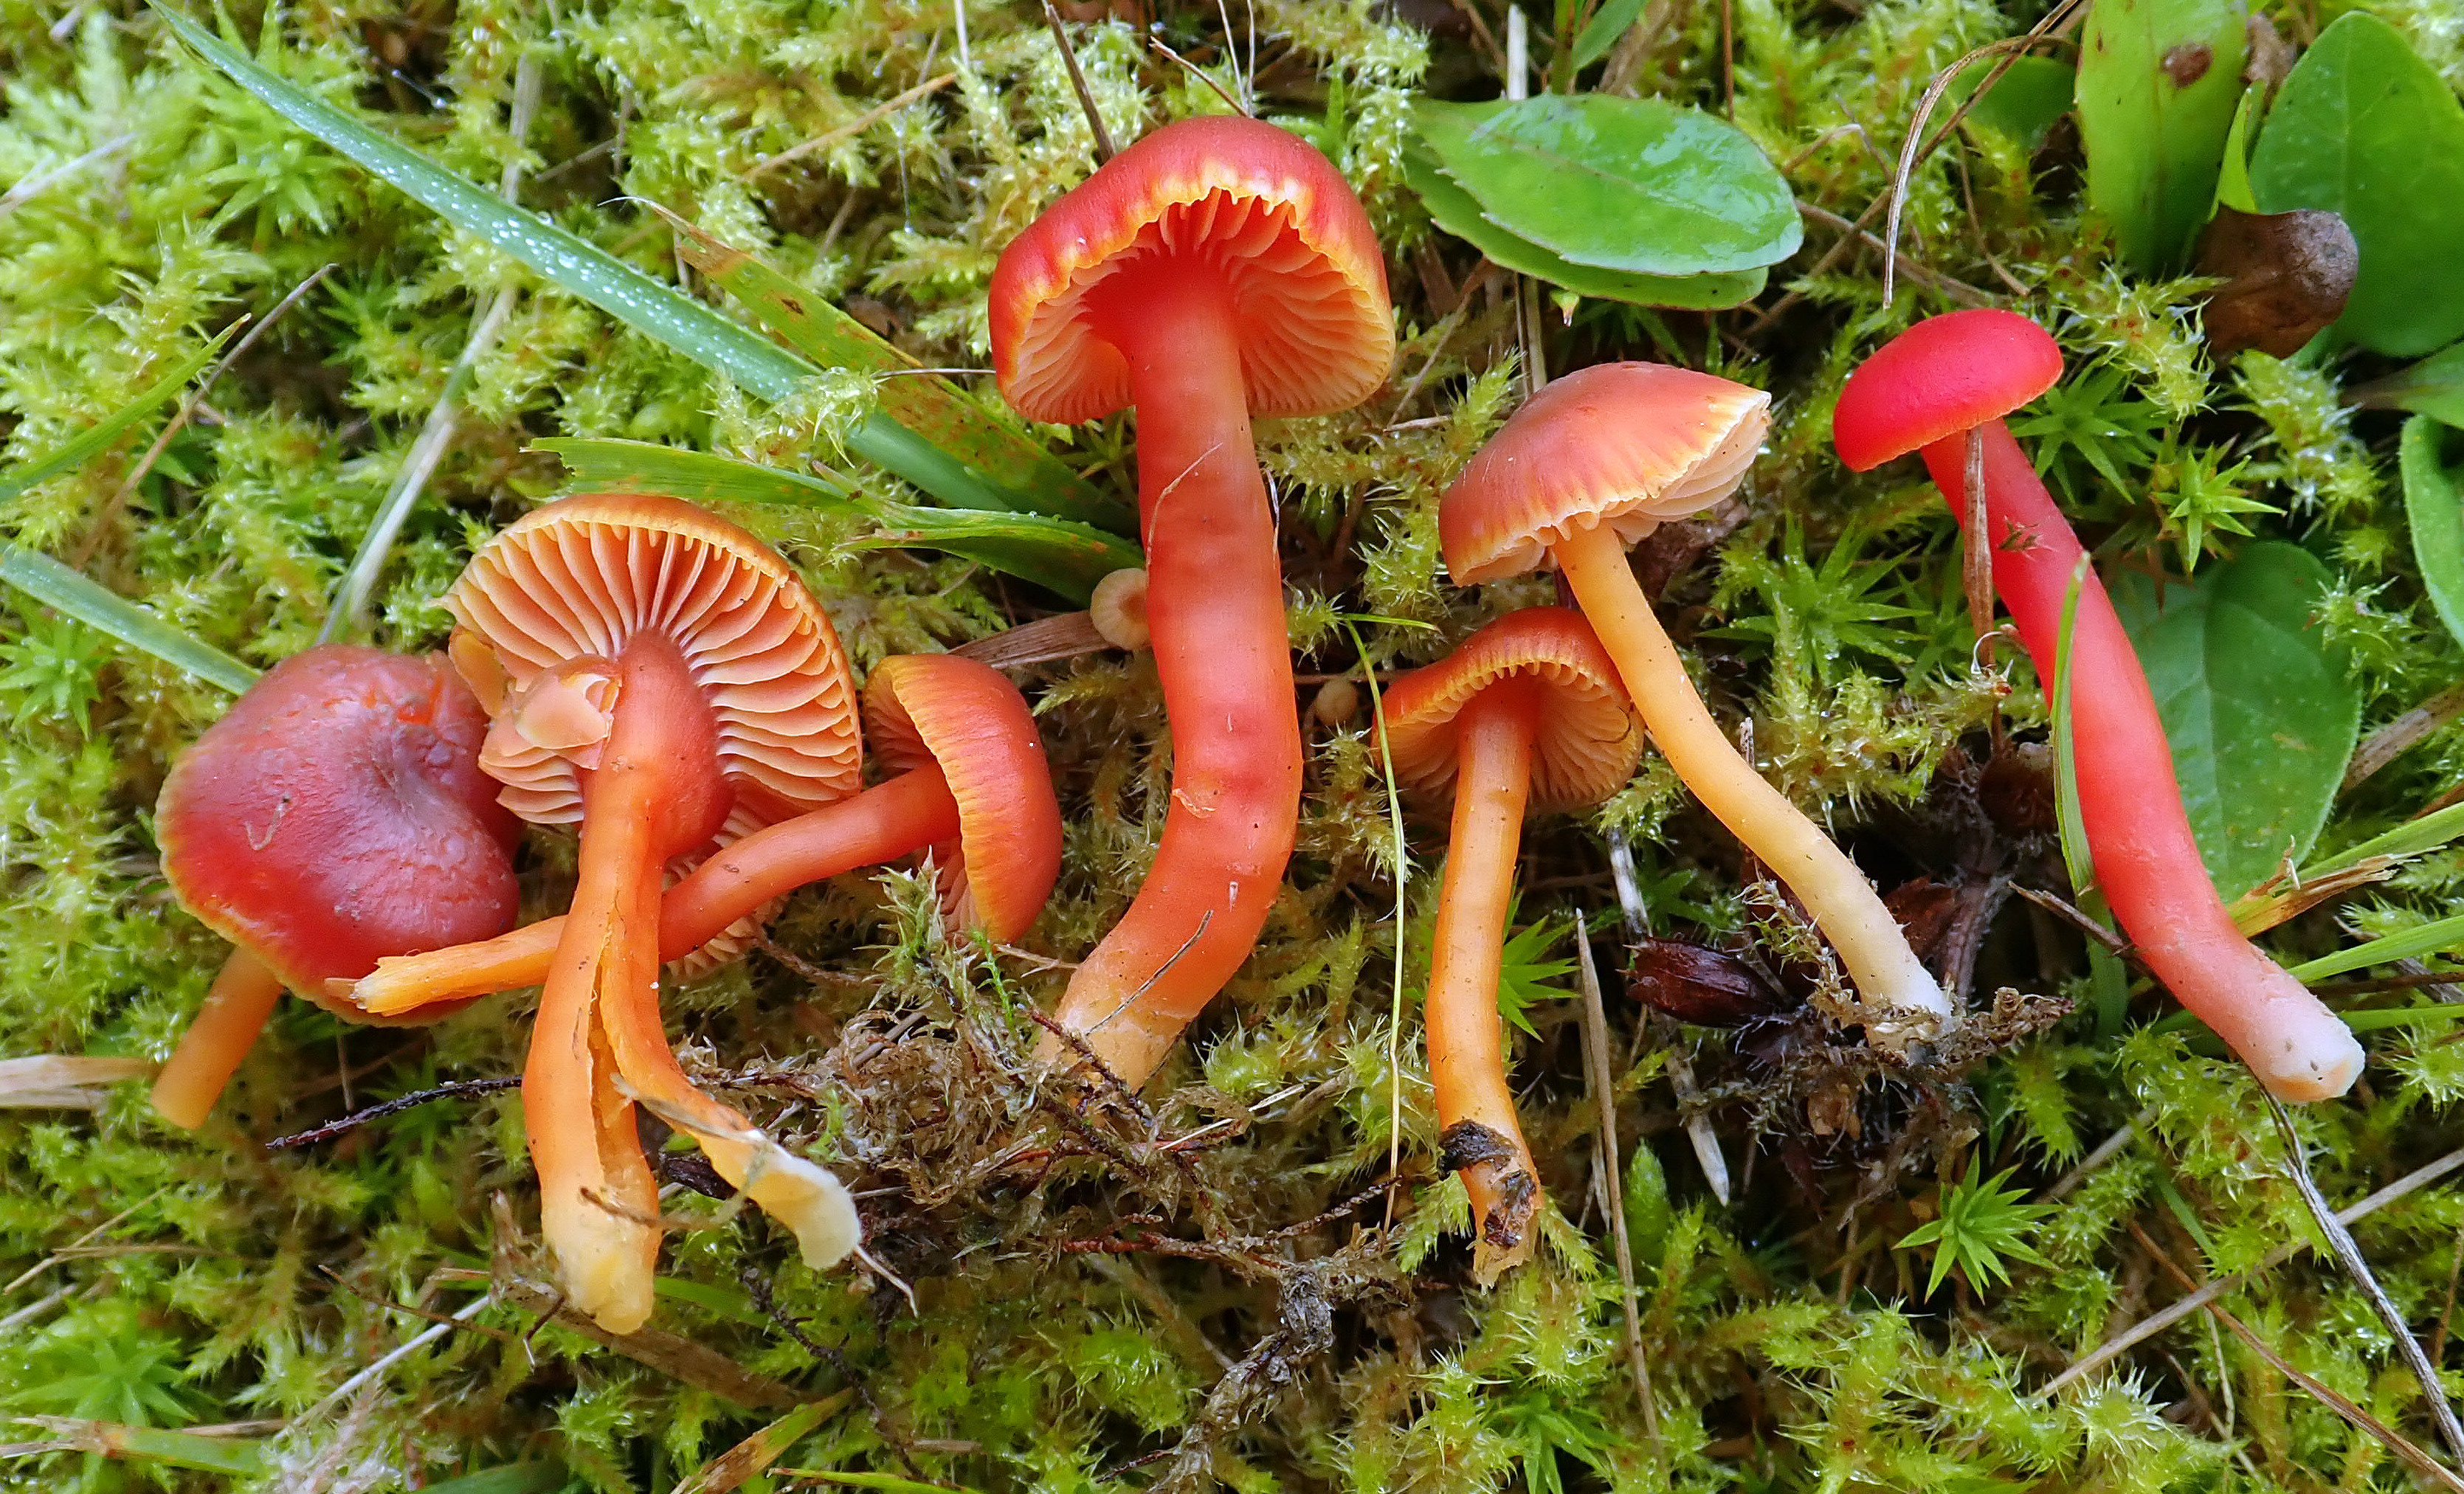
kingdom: Fungi
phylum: Basidiomycota
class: Agaricomycetes
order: Agaricales
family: Hygrophoraceae
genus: Hygrocybe
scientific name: Hygrocybe phaeococcinea
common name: Shadowed waxcap
